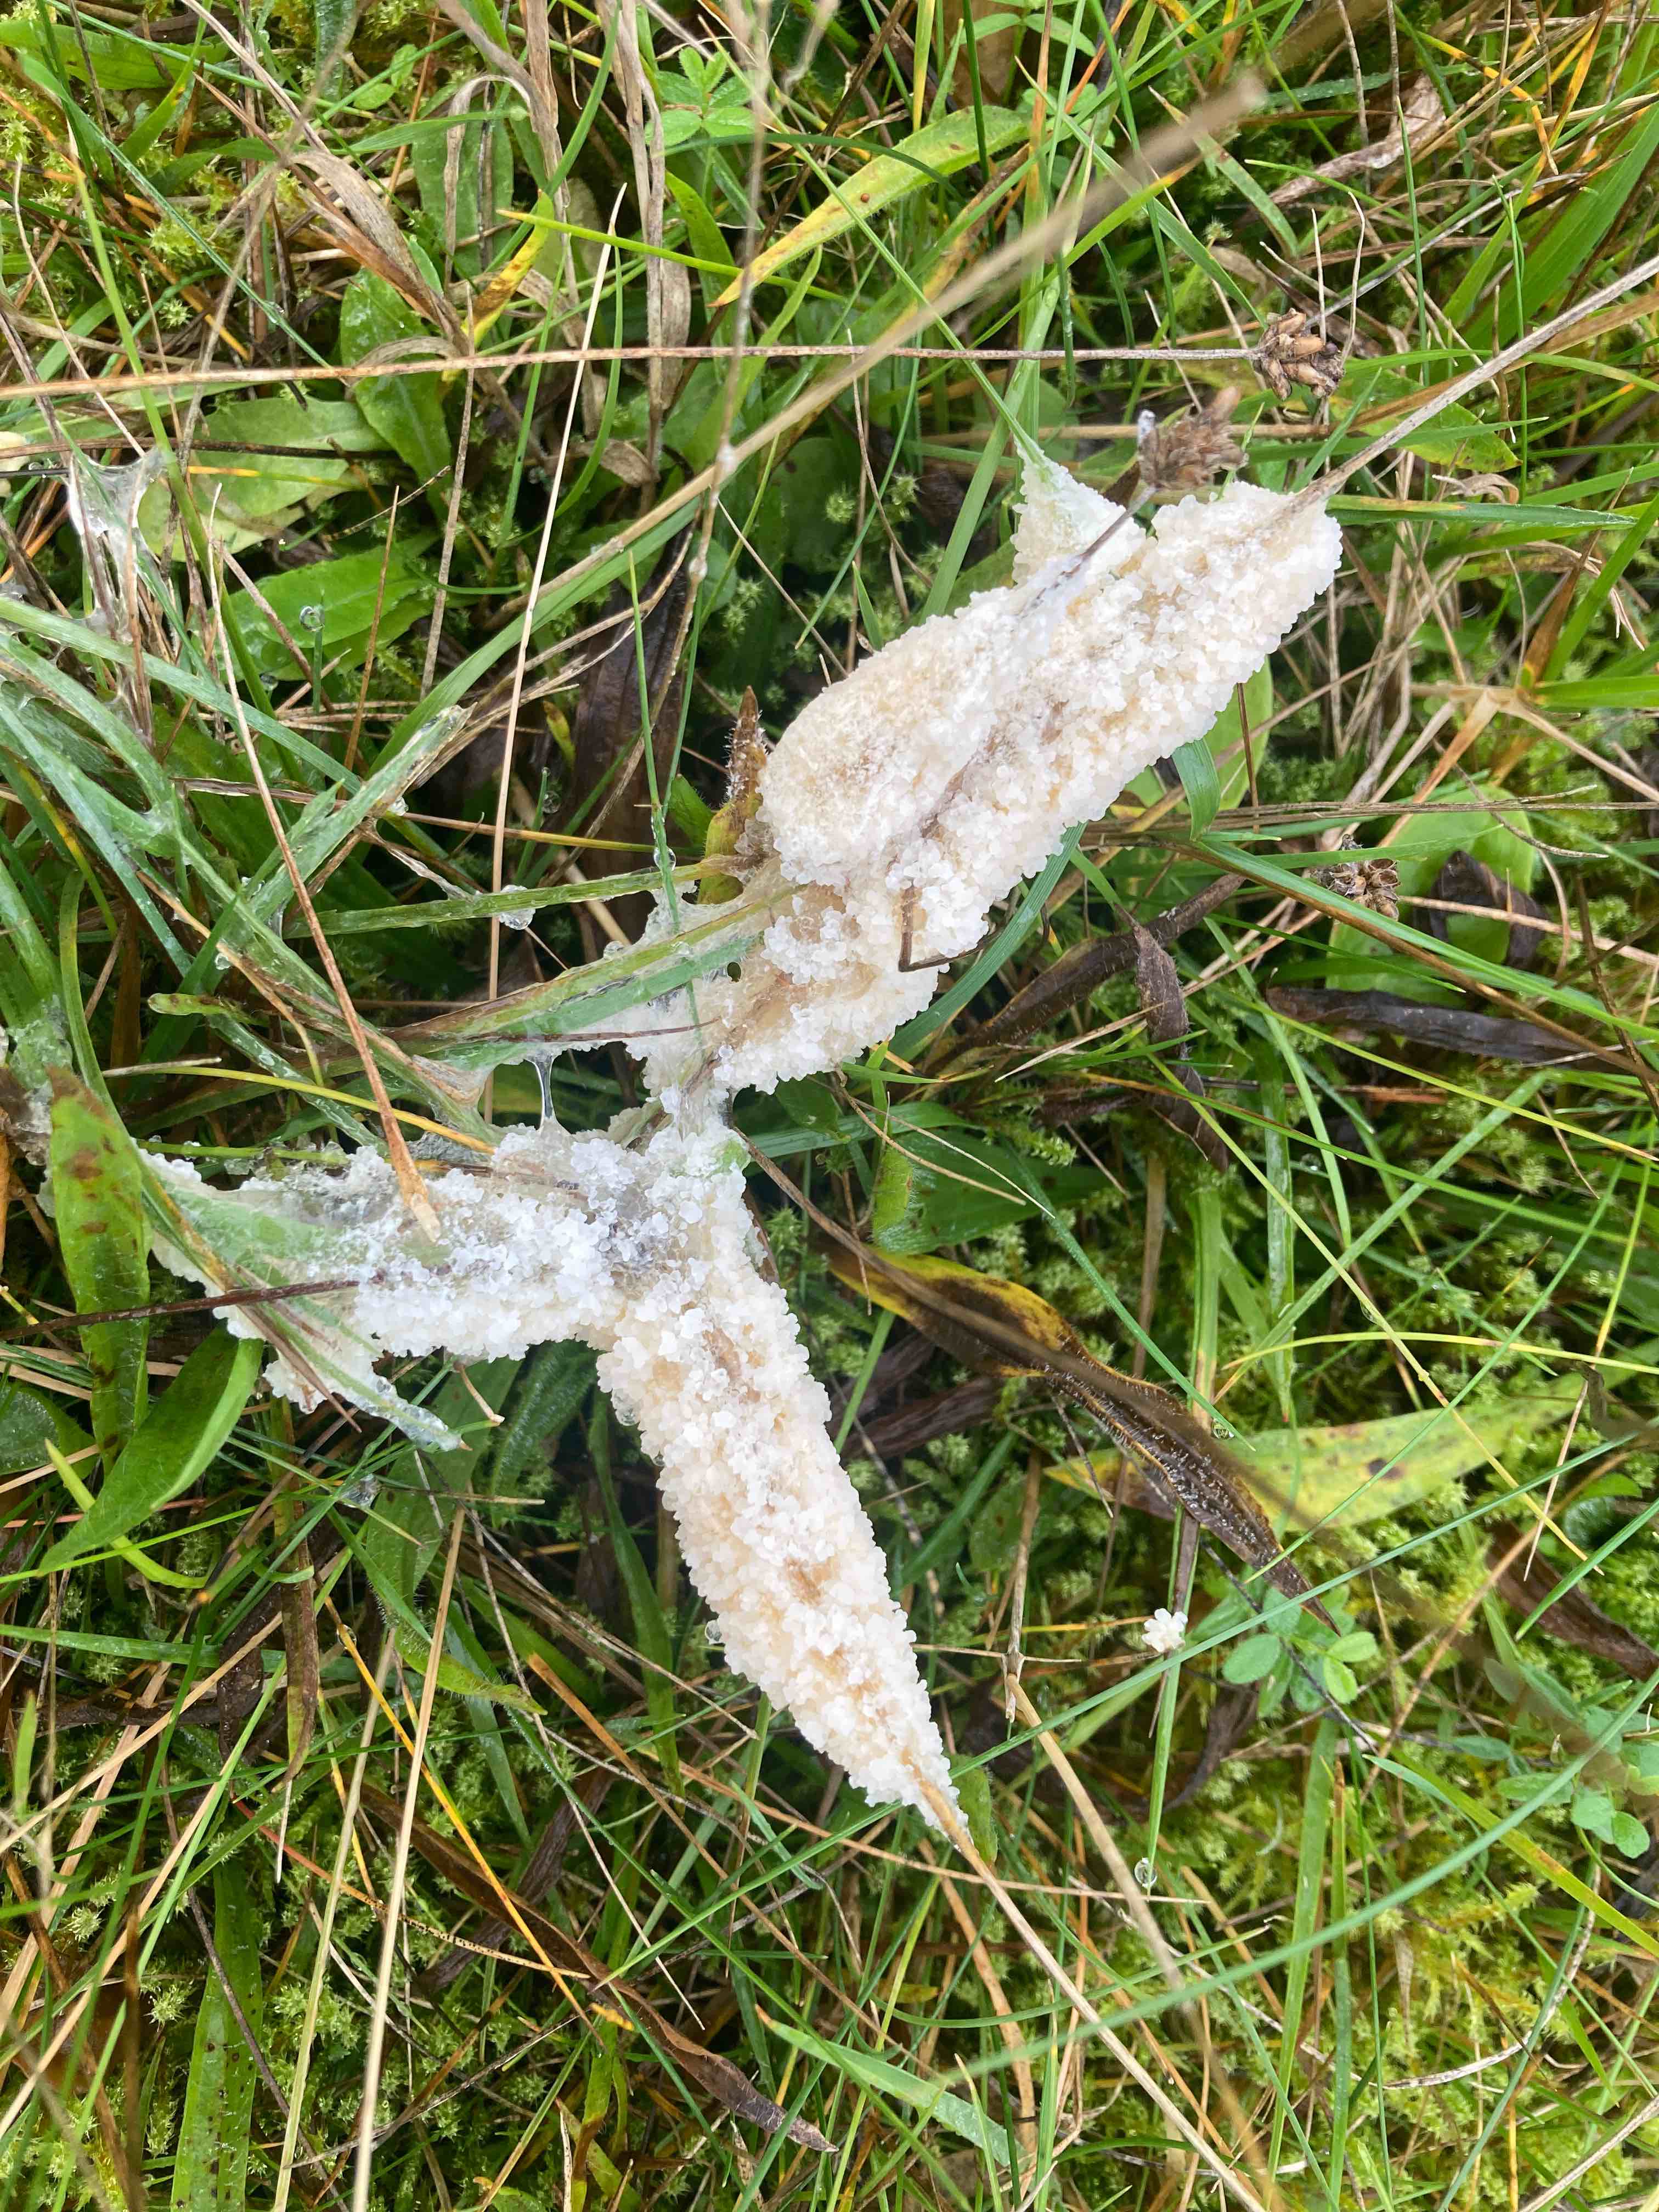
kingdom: Protozoa
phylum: Mycetozoa
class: Myxomycetes
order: Physarales
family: Physaraceae
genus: Didymium
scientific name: Didymium
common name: urteskum
